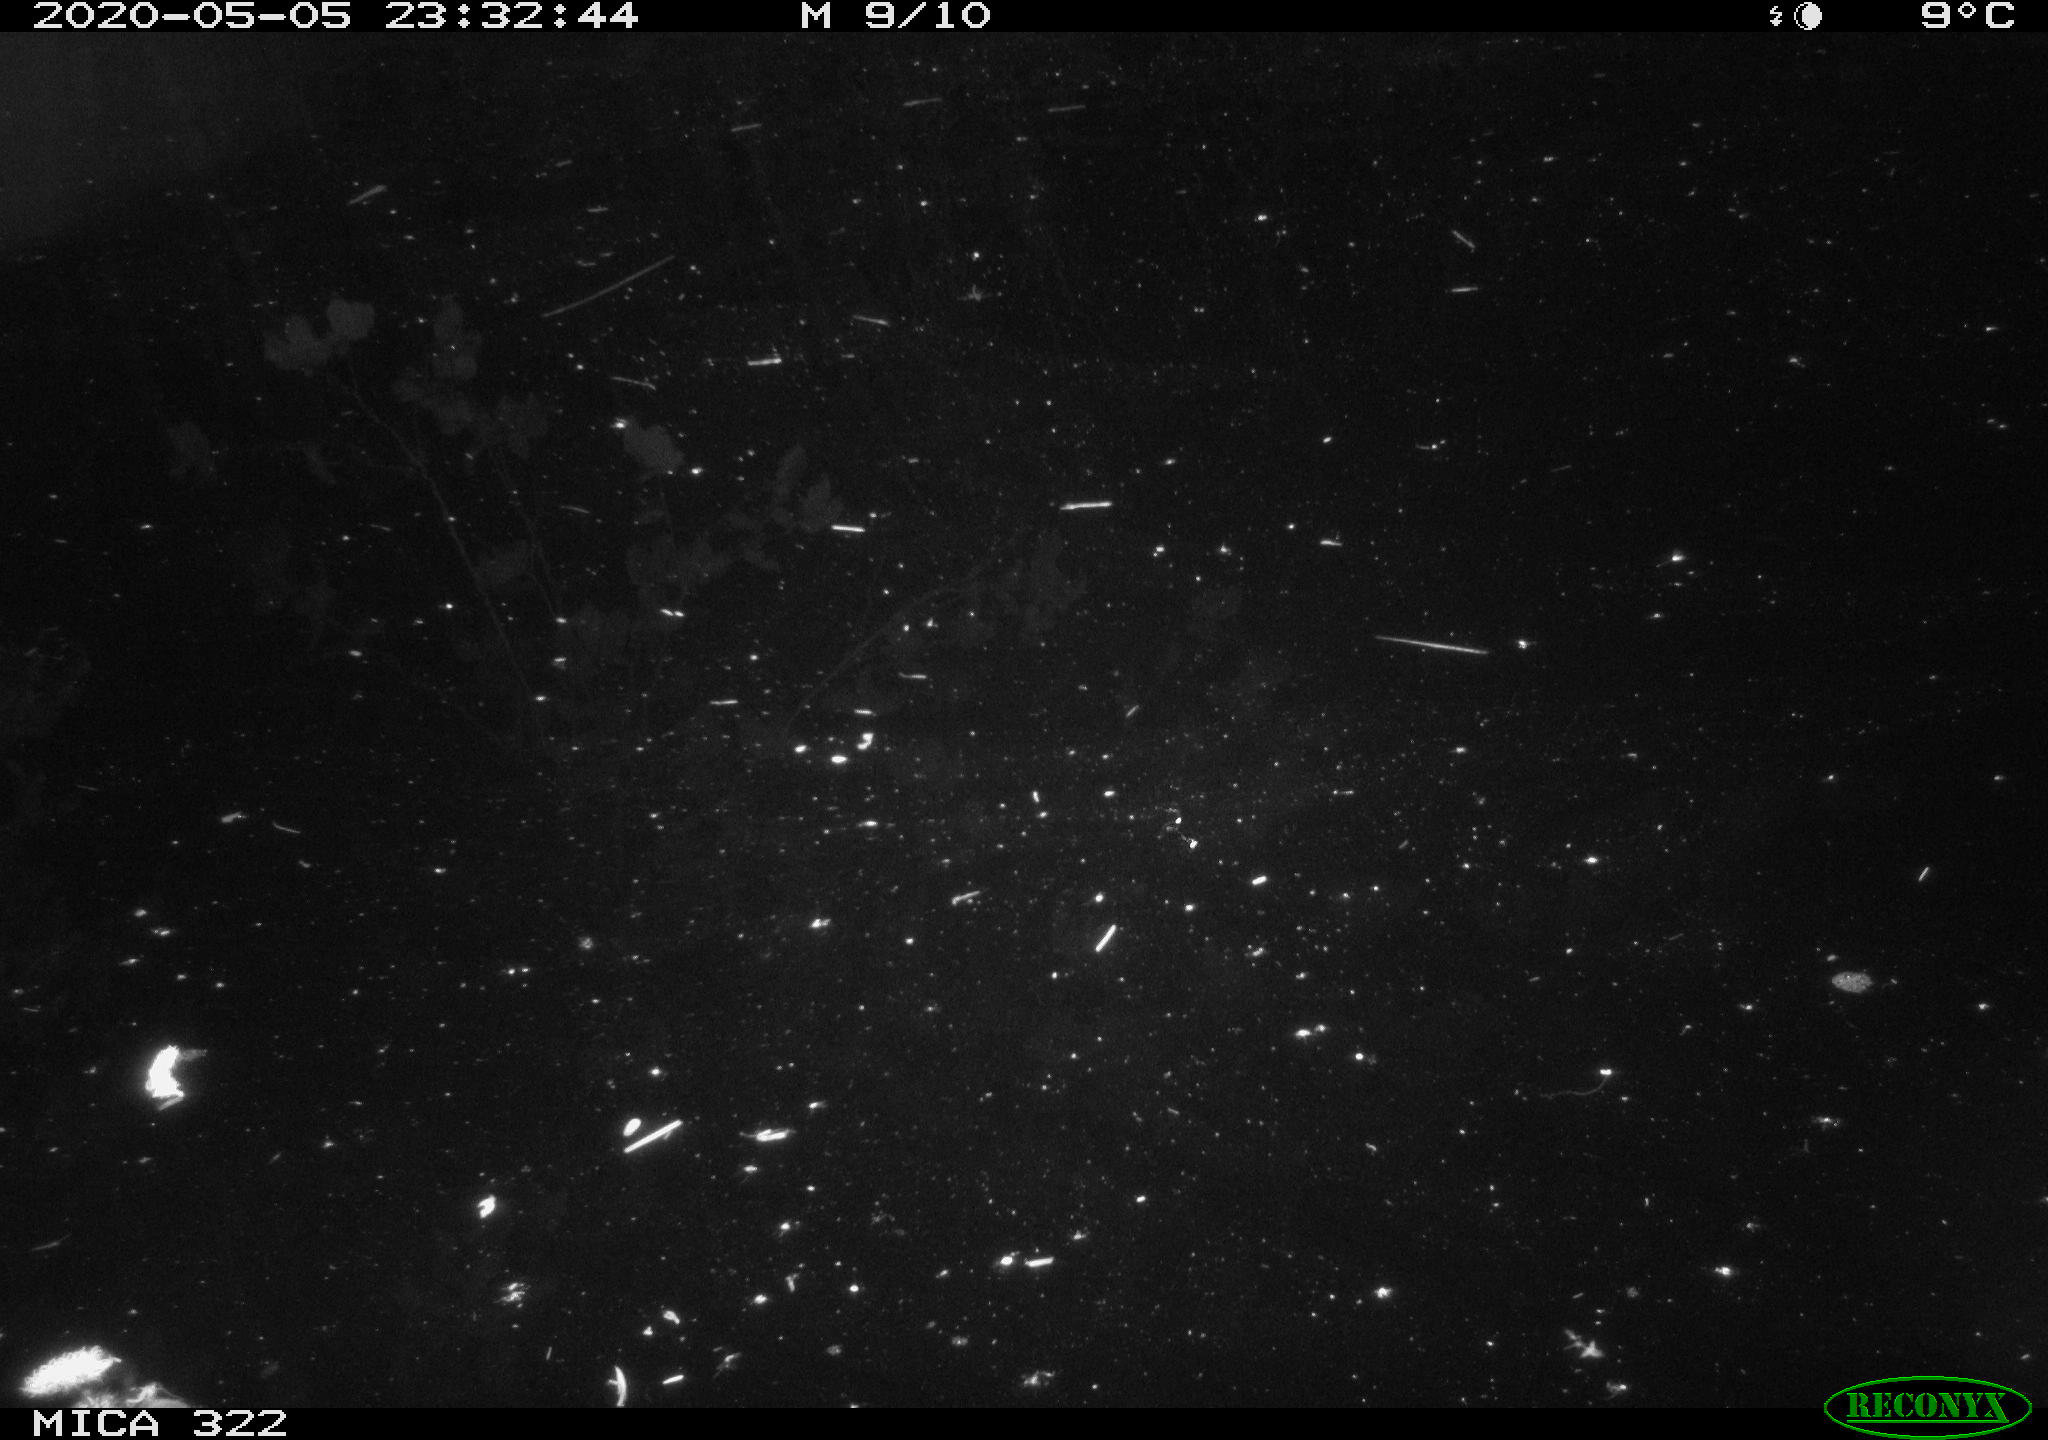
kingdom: Animalia
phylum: Chordata
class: Aves
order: Anseriformes
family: Anatidae
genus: Anas
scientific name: Anas platyrhynchos
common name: Mallard
